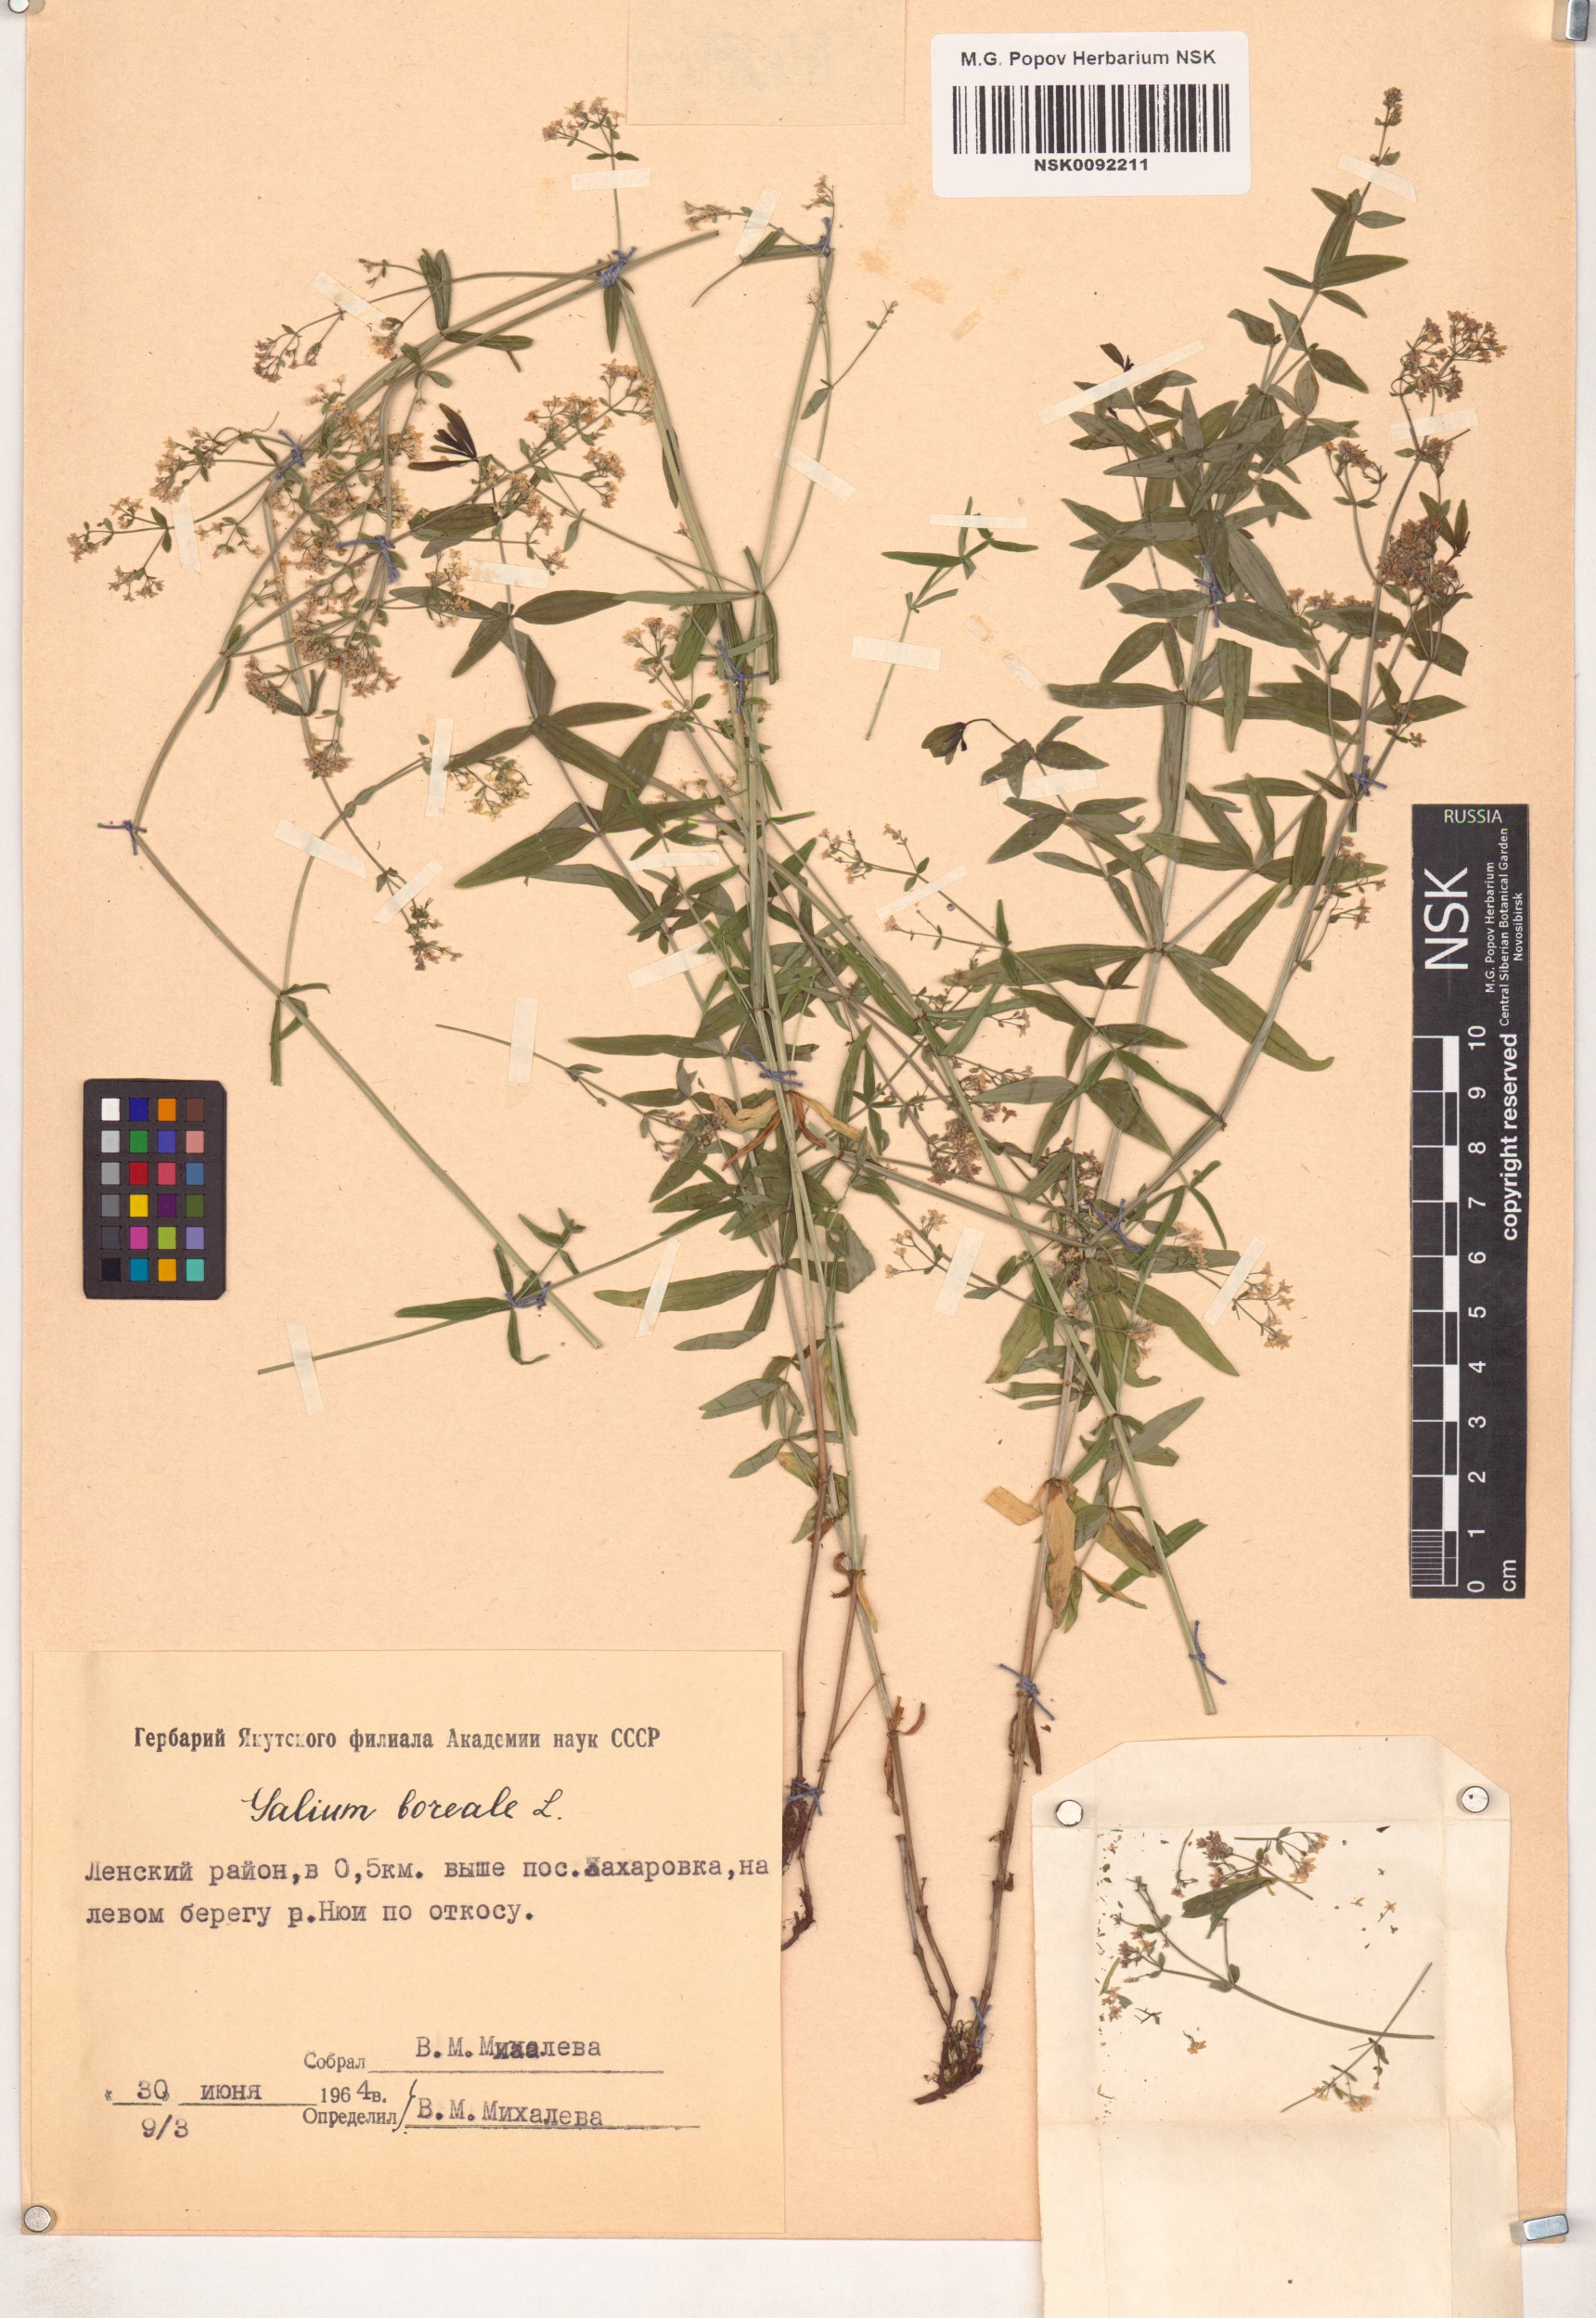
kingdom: Plantae
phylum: Tracheophyta
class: Magnoliopsida
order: Gentianales
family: Rubiaceae
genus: Galium
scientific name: Galium boreale
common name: Northern bedstraw
